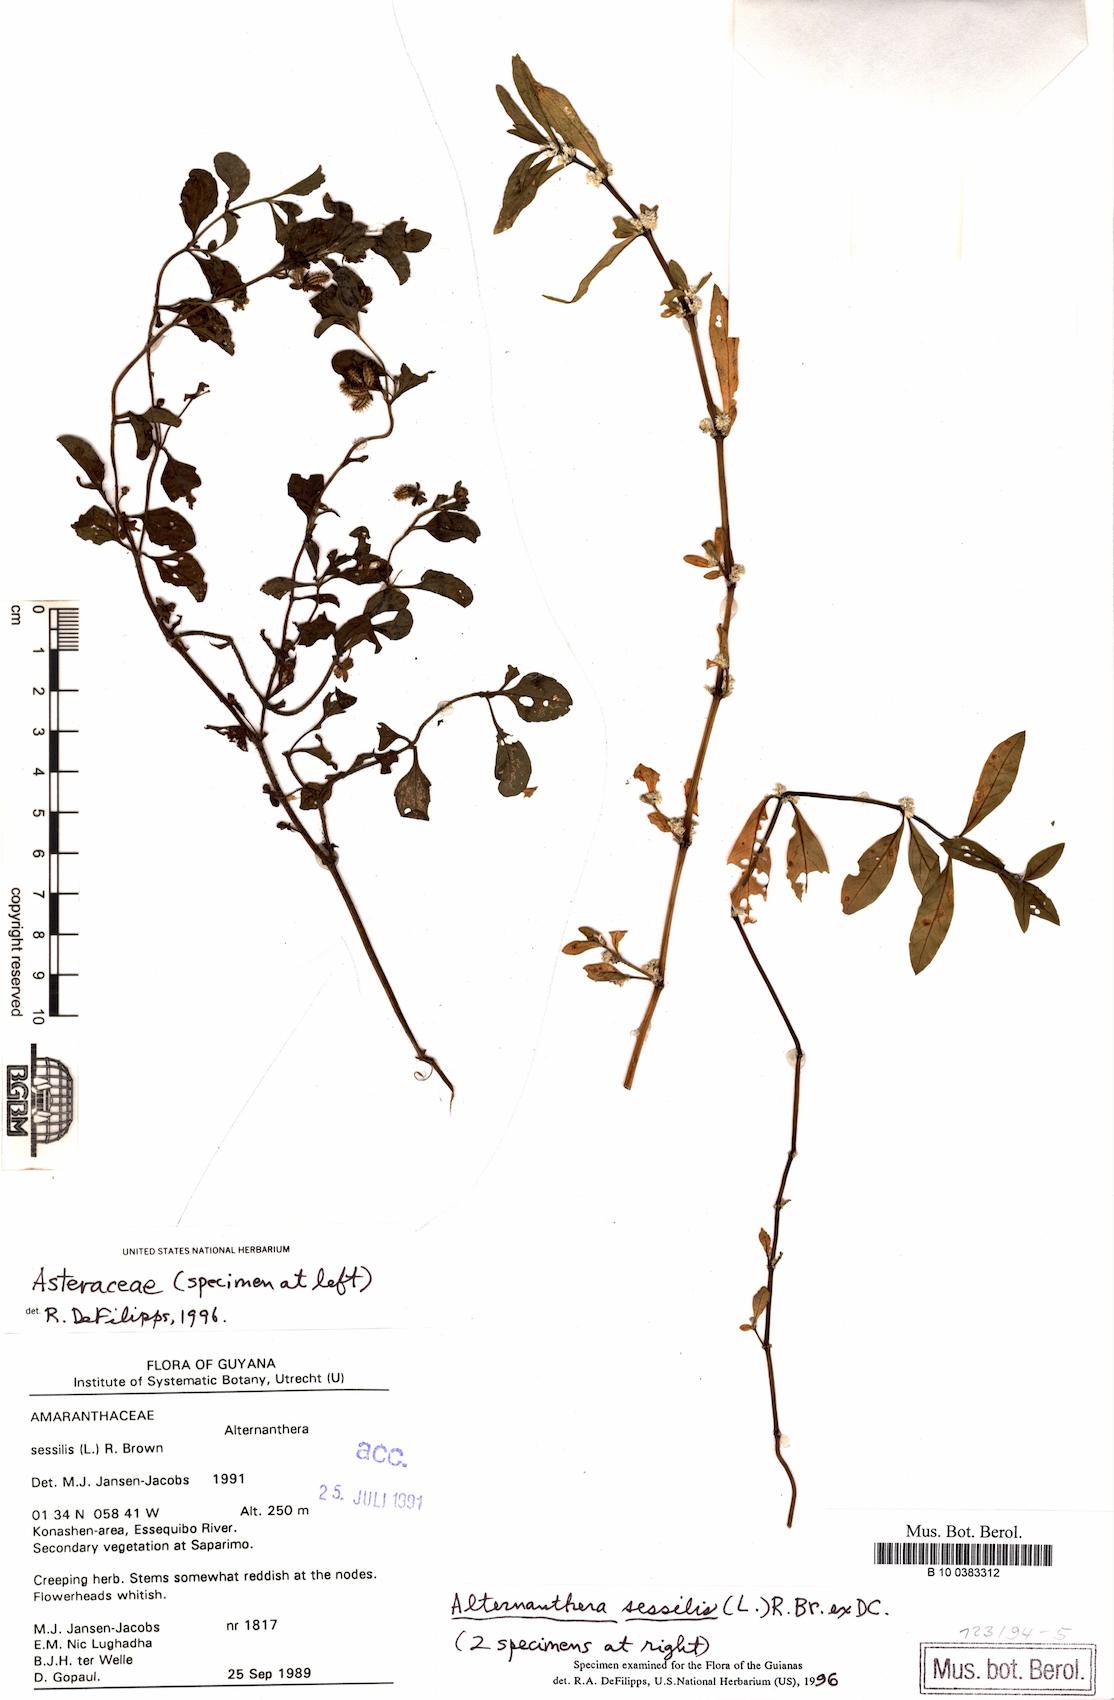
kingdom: Plantae
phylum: Tracheophyta
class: Magnoliopsida
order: Caryophyllales
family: Amaranthaceae
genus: Alternanthera
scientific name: Alternanthera sessilis
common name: Sessile joyweed
